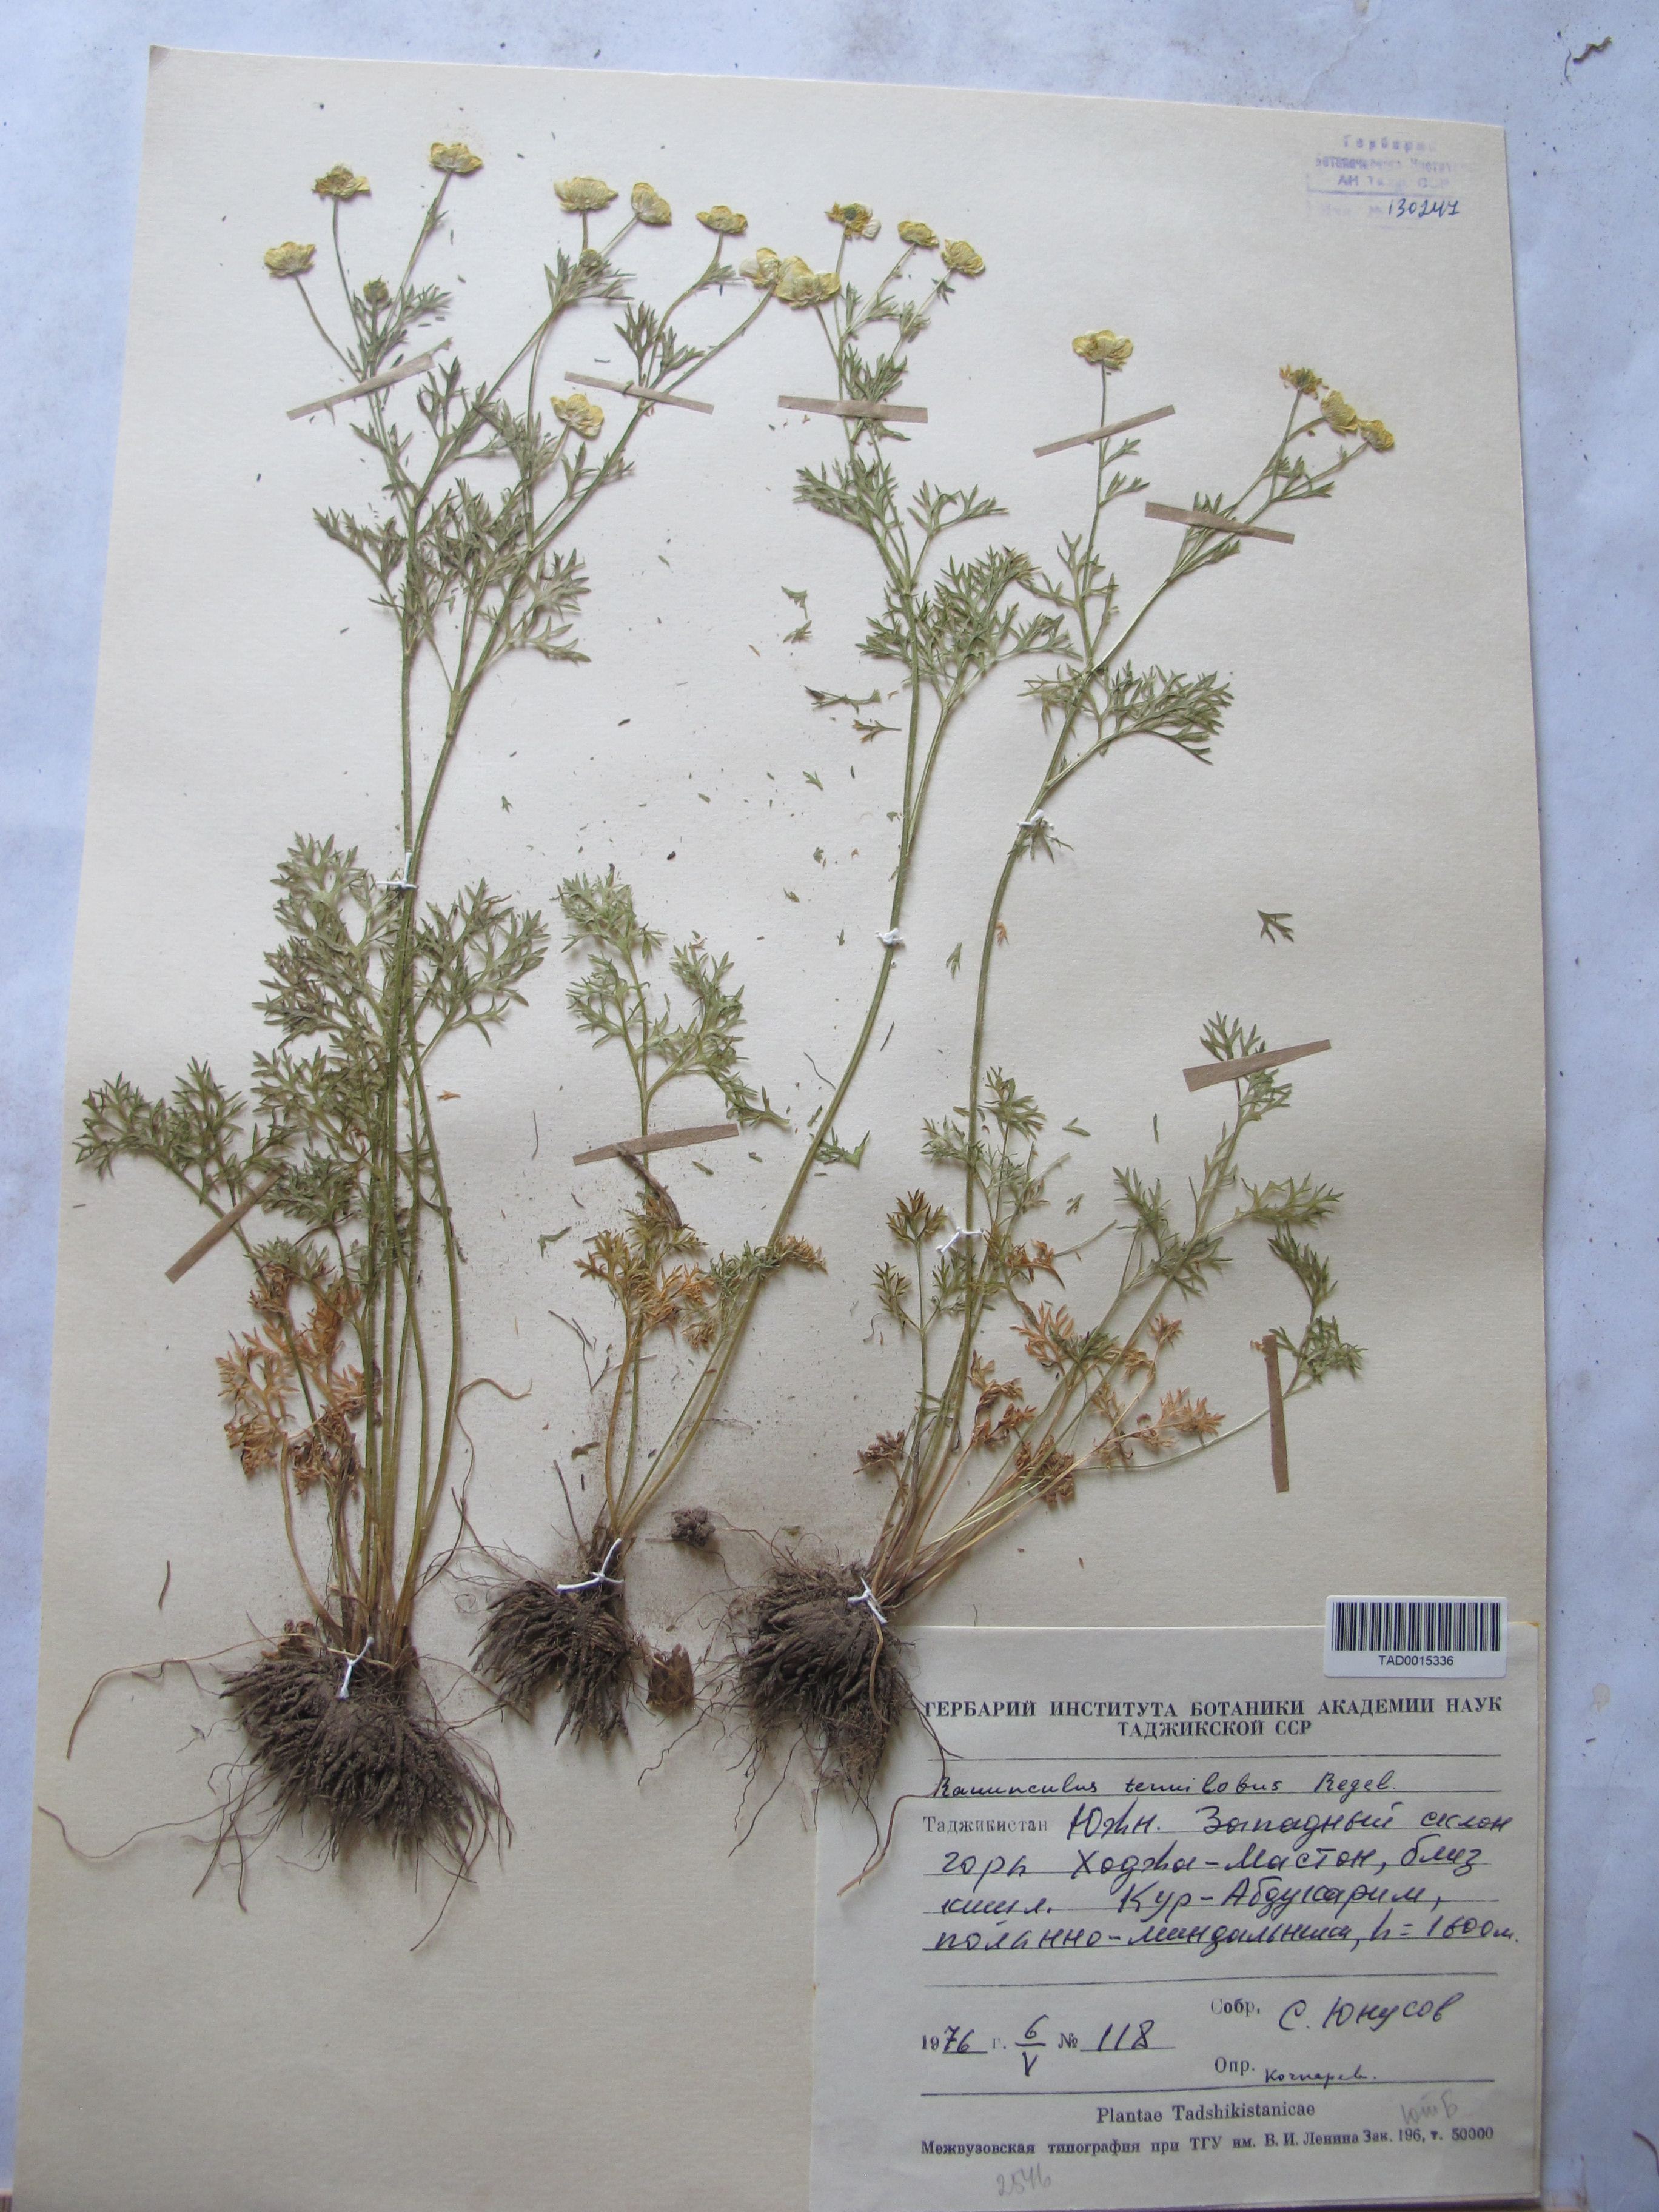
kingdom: Plantae
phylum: Tracheophyta
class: Magnoliopsida
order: Ranunculales
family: Ranunculaceae
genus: Ranunculus
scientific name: Ranunculus tenuilobus
